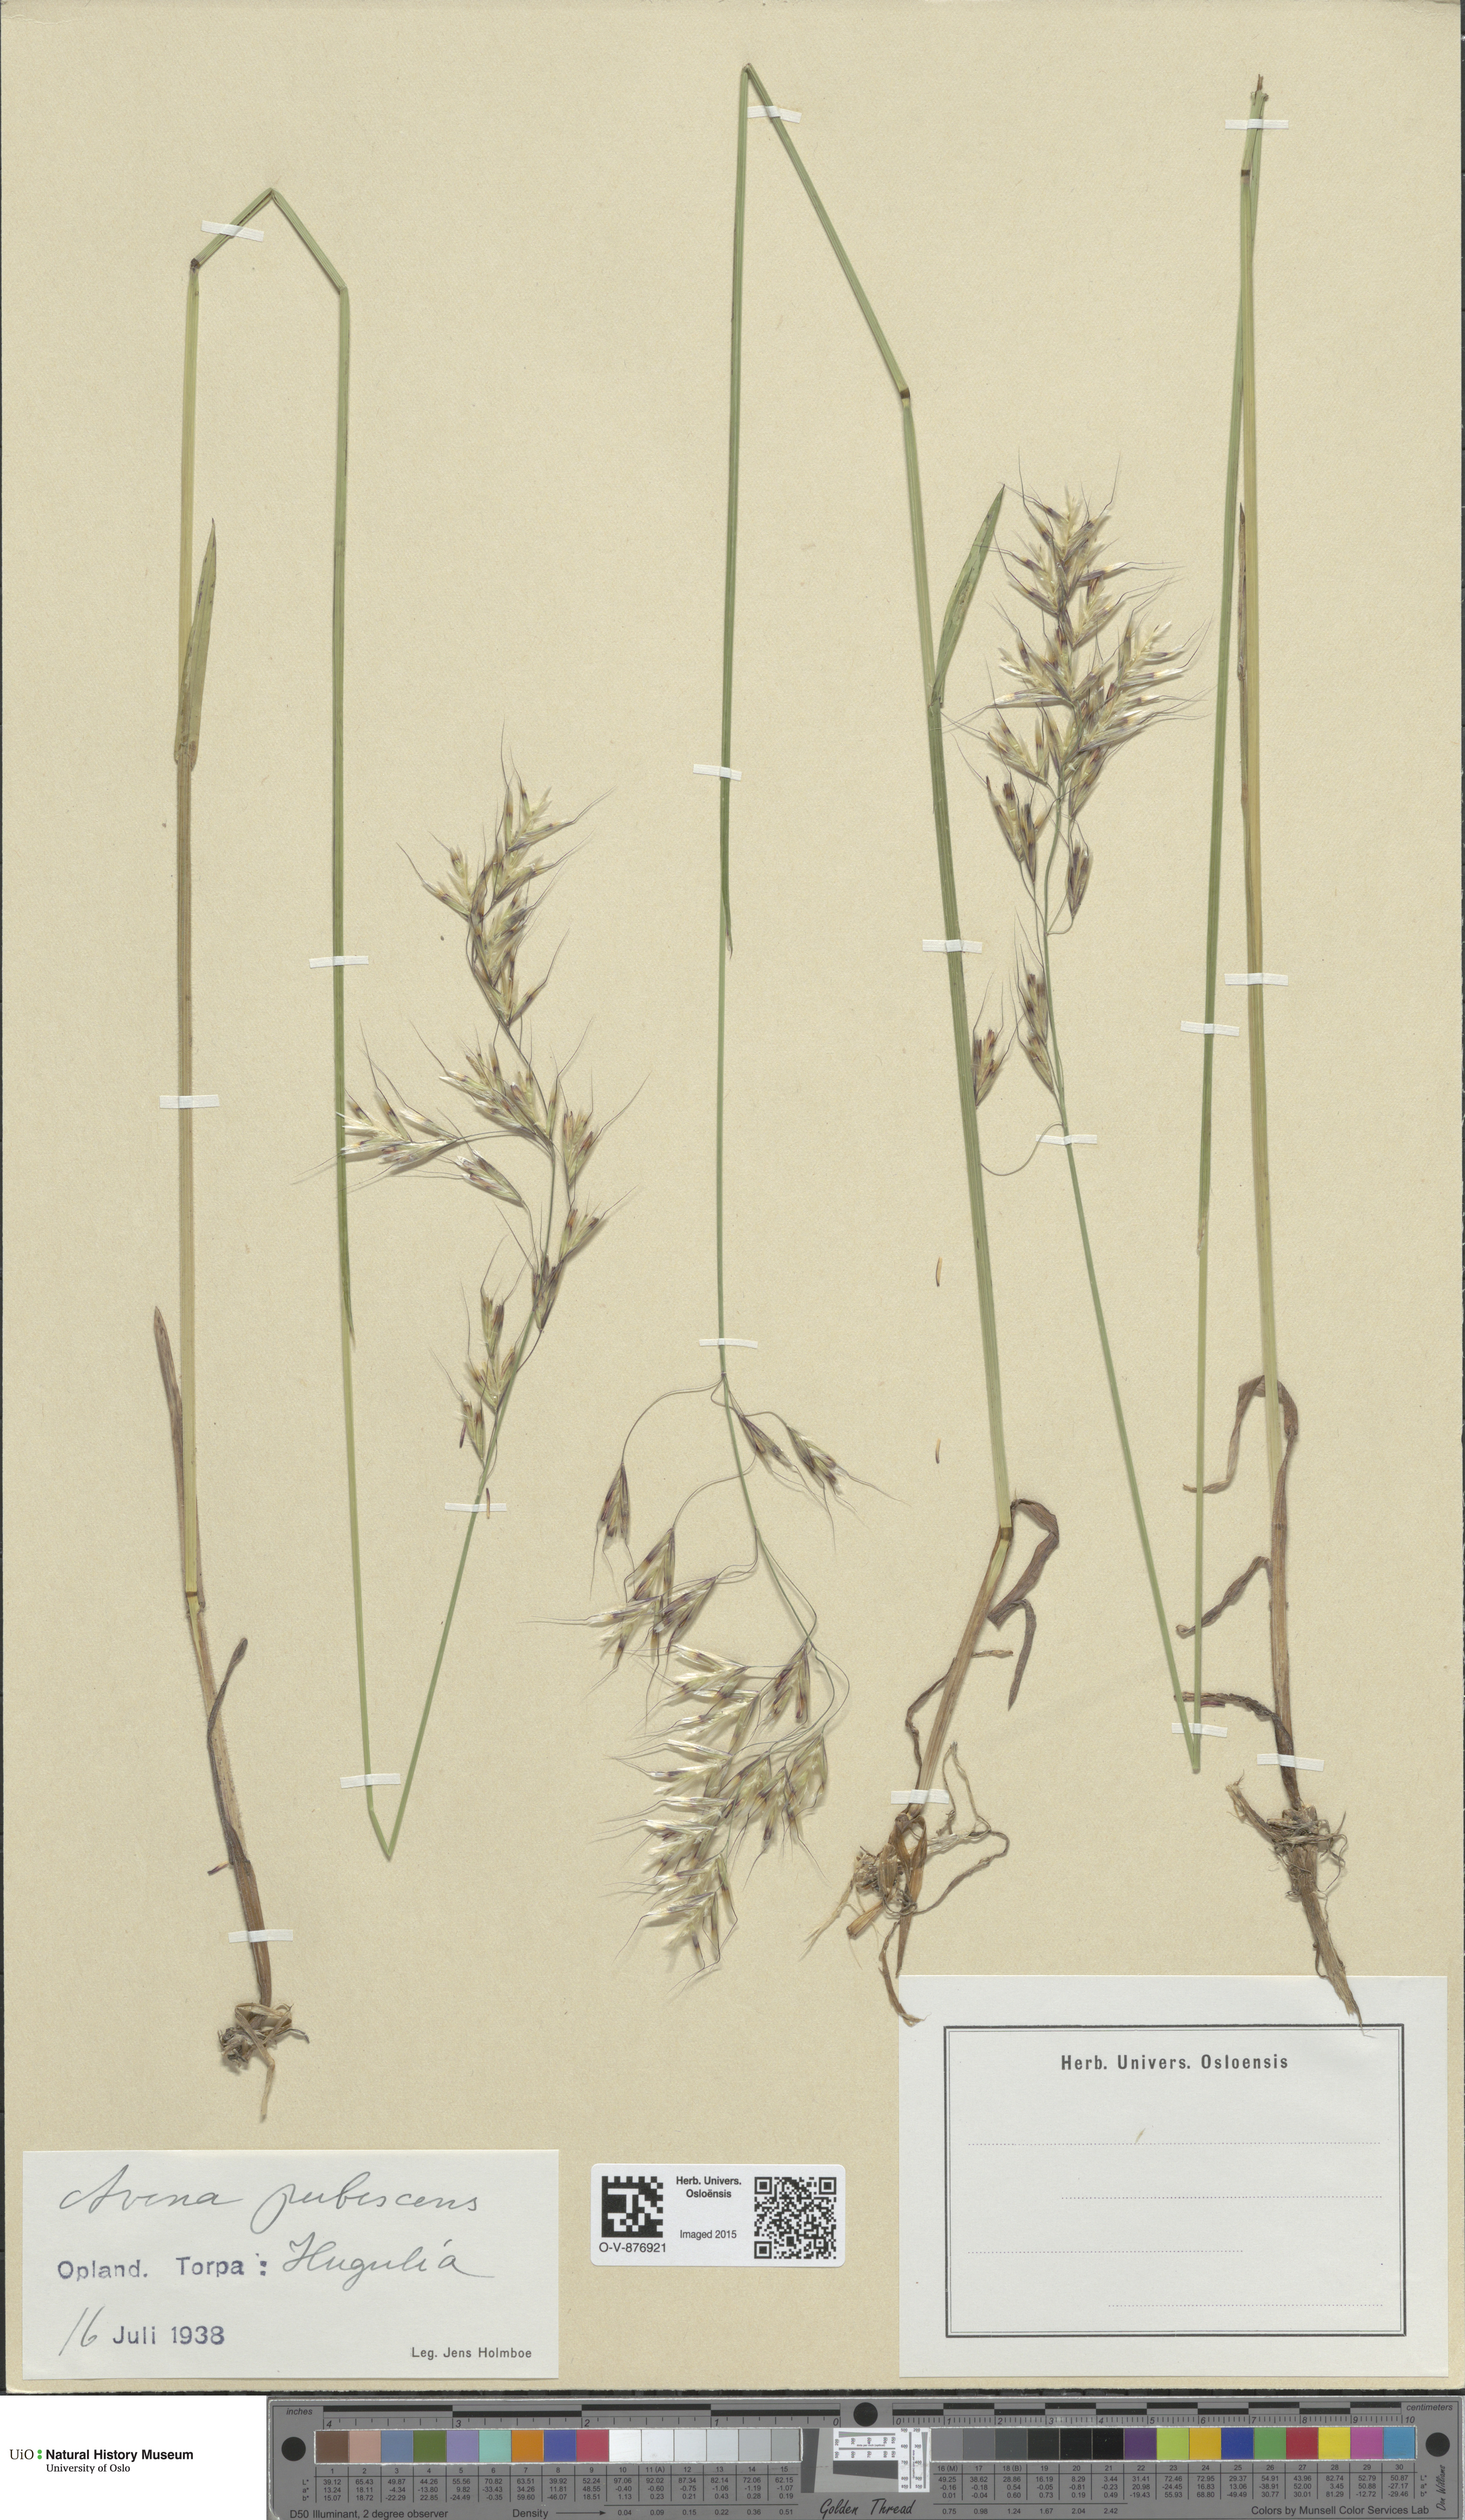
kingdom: Plantae
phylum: Tracheophyta
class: Liliopsida
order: Poales
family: Poaceae
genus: Avenula
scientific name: Avenula pubescens
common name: Downy alpine oatgrass
